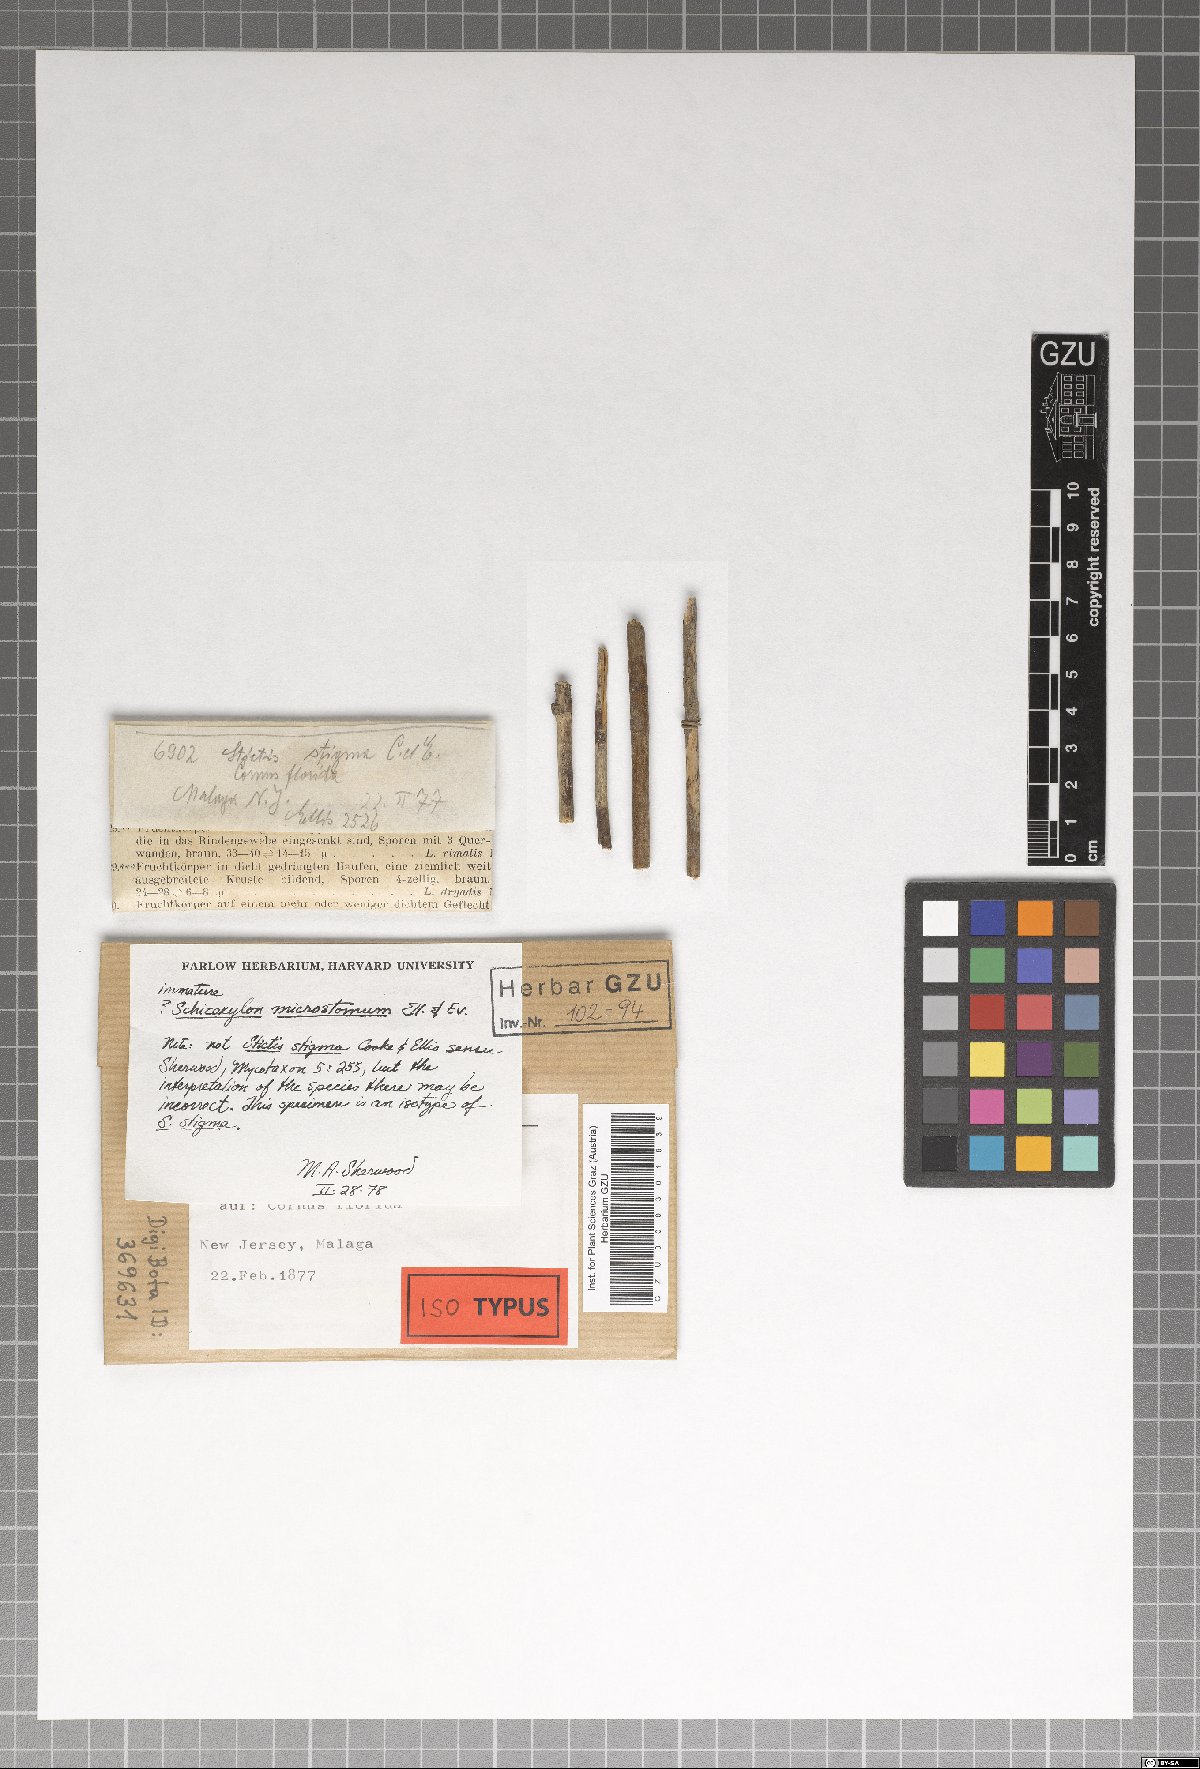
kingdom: Fungi
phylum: Ascomycota
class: Lecanoromycetes
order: Ostropales
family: Stictidaceae
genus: Stictis
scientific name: Stictis
